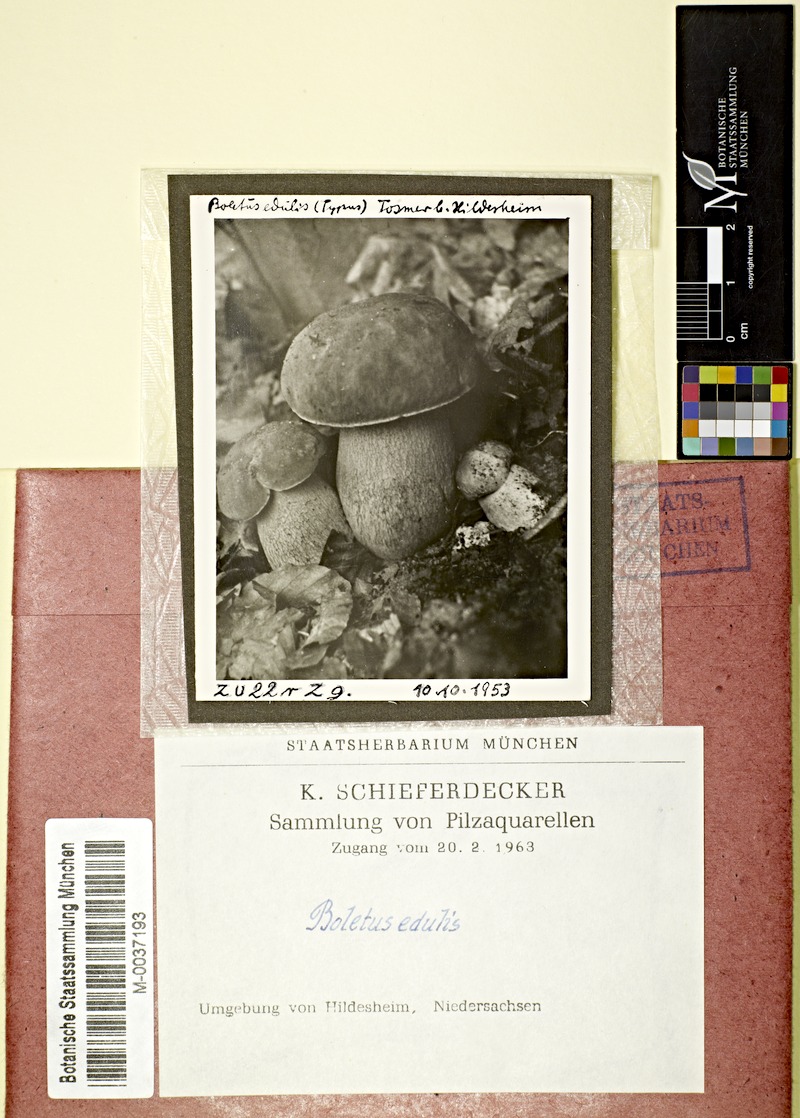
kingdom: Fungi
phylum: Basidiomycota
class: Agaricomycetes
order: Boletales
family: Boletaceae
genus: Boletus
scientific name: Boletus edulis
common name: Cep
